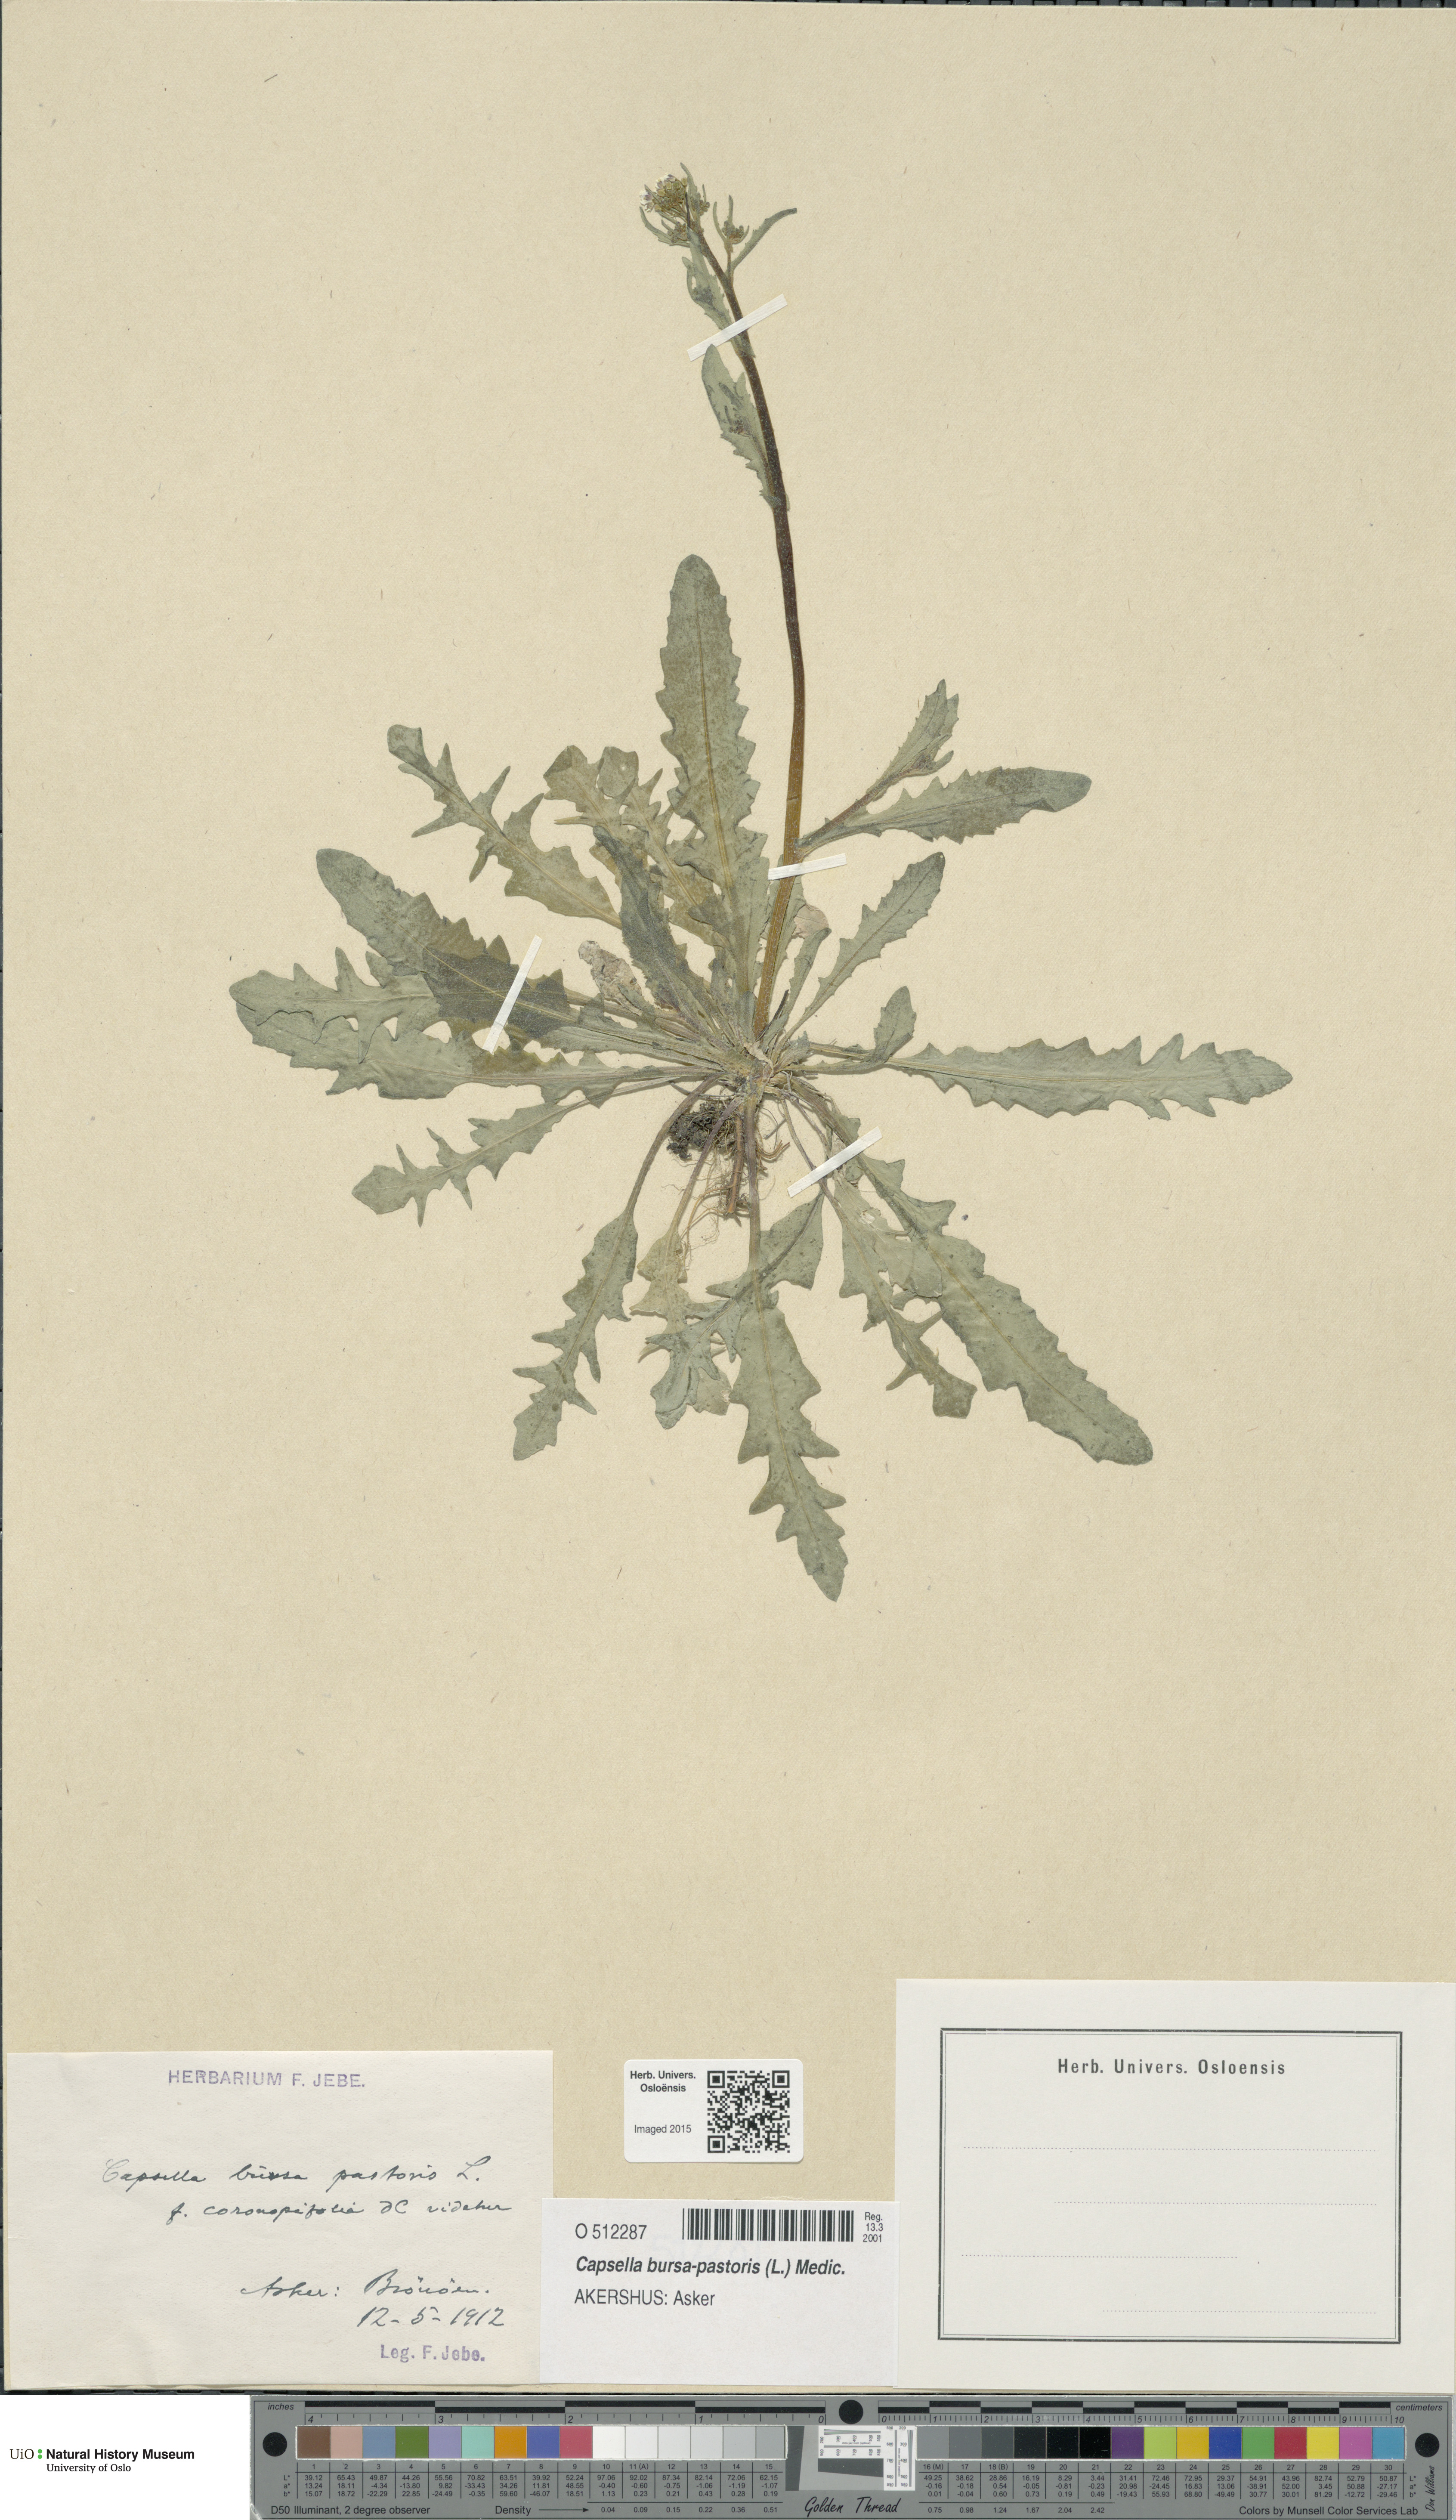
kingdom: Plantae
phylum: Tracheophyta
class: Magnoliopsida
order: Brassicales
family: Brassicaceae
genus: Capsella
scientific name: Capsella bursa-pastoris
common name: Shepherd's purse
